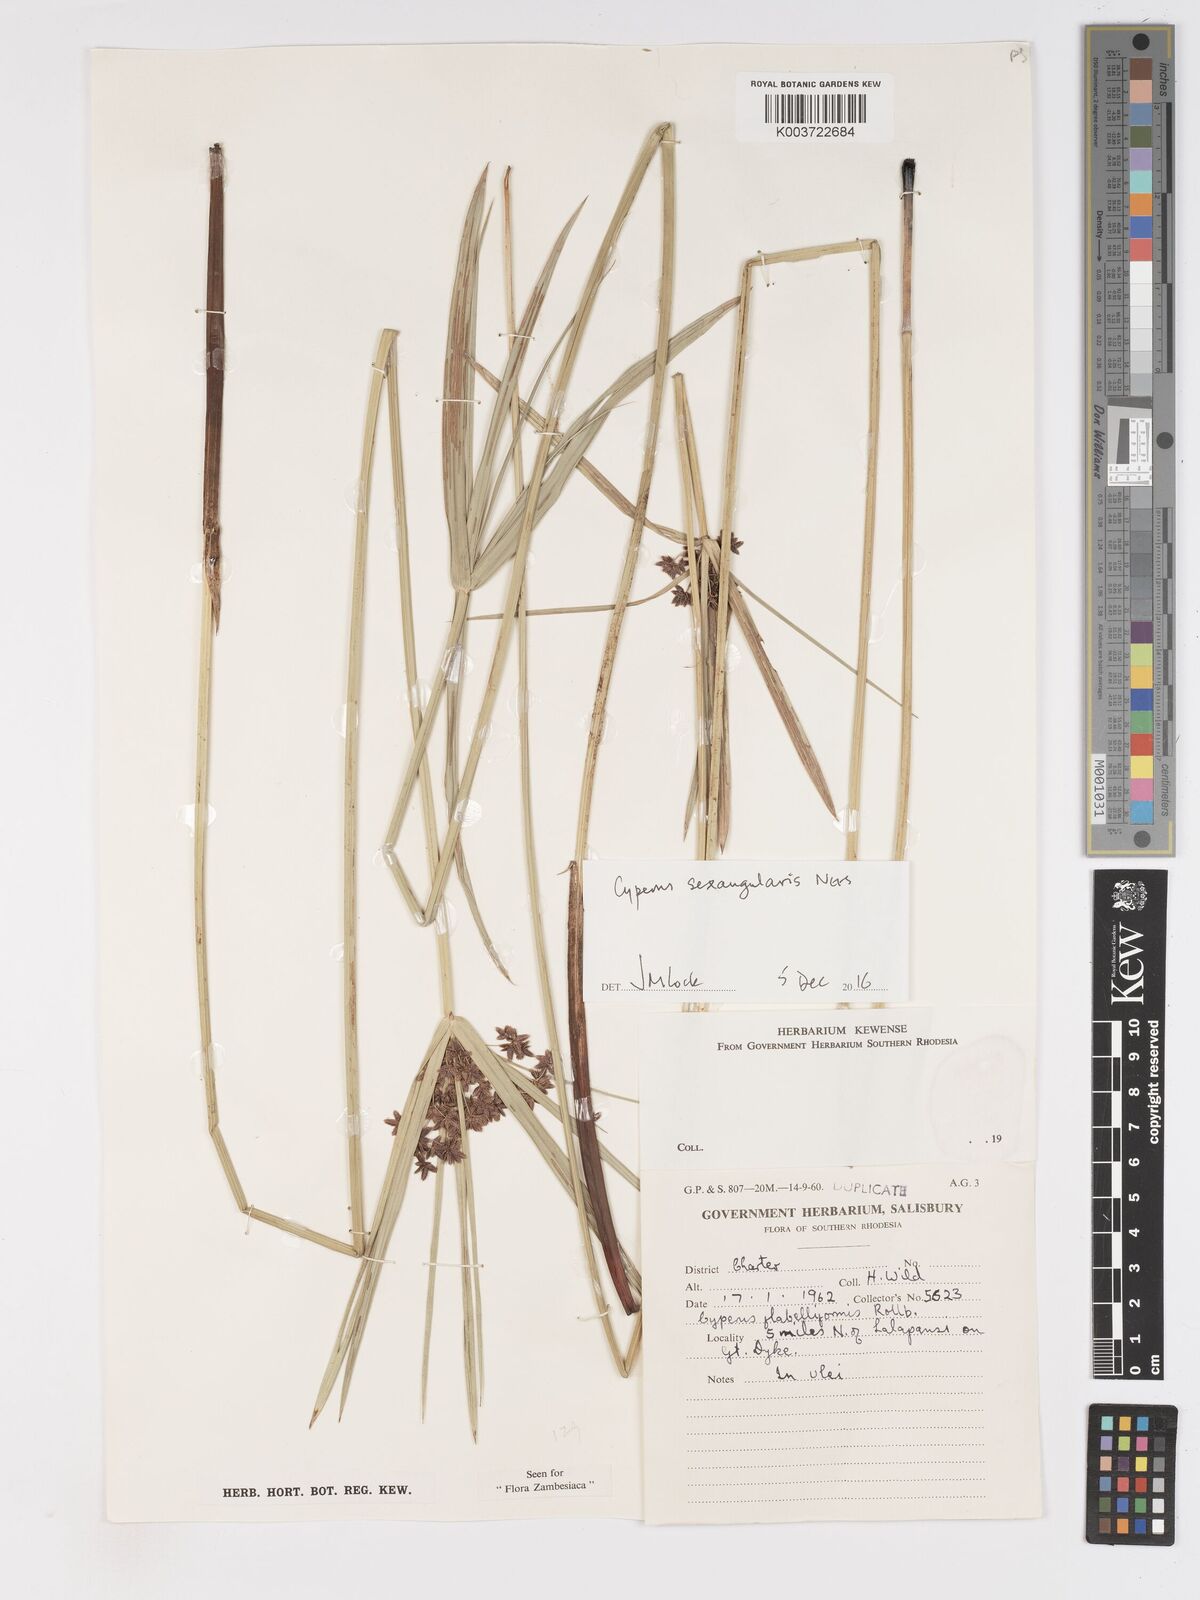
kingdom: Plantae
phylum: Tracheophyta
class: Liliopsida
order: Poales
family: Cyperaceae
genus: Cyperus
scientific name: Cyperus sexangularis
